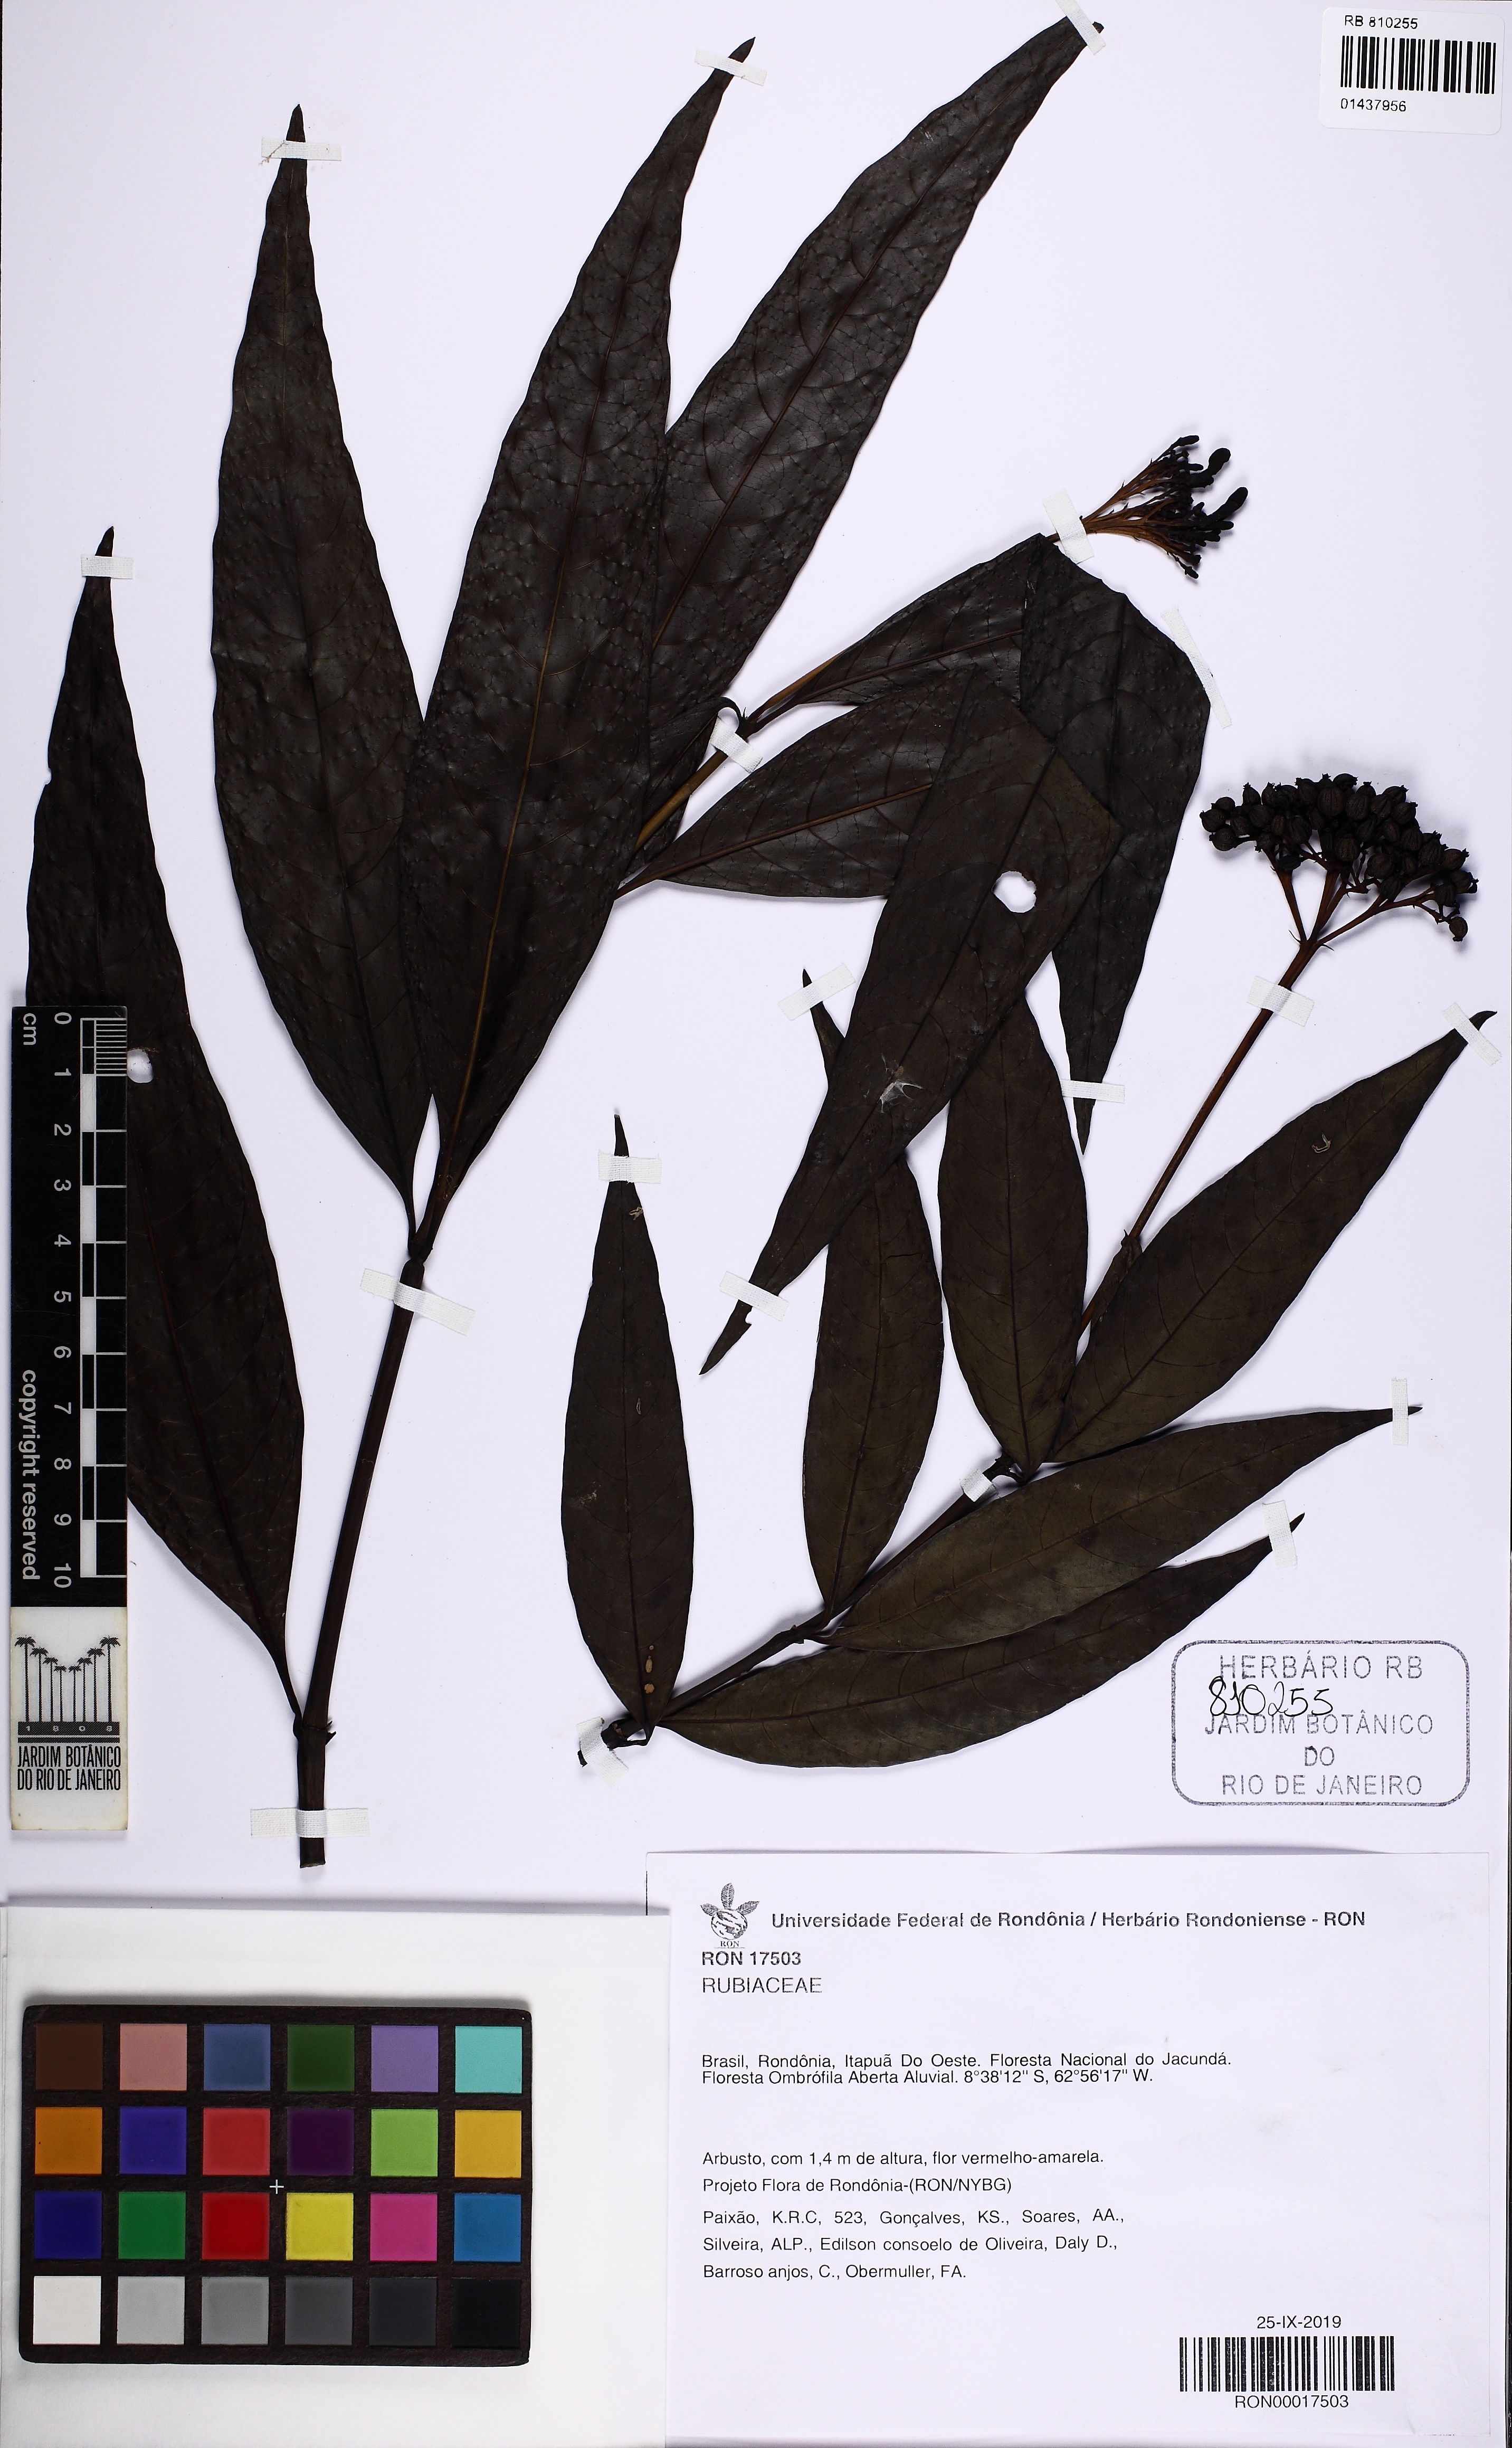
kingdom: Plantae
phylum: Tracheophyta
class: Magnoliopsida
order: Gentianales
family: Rubiaceae
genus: Palicourea
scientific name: Palicourea crocea
